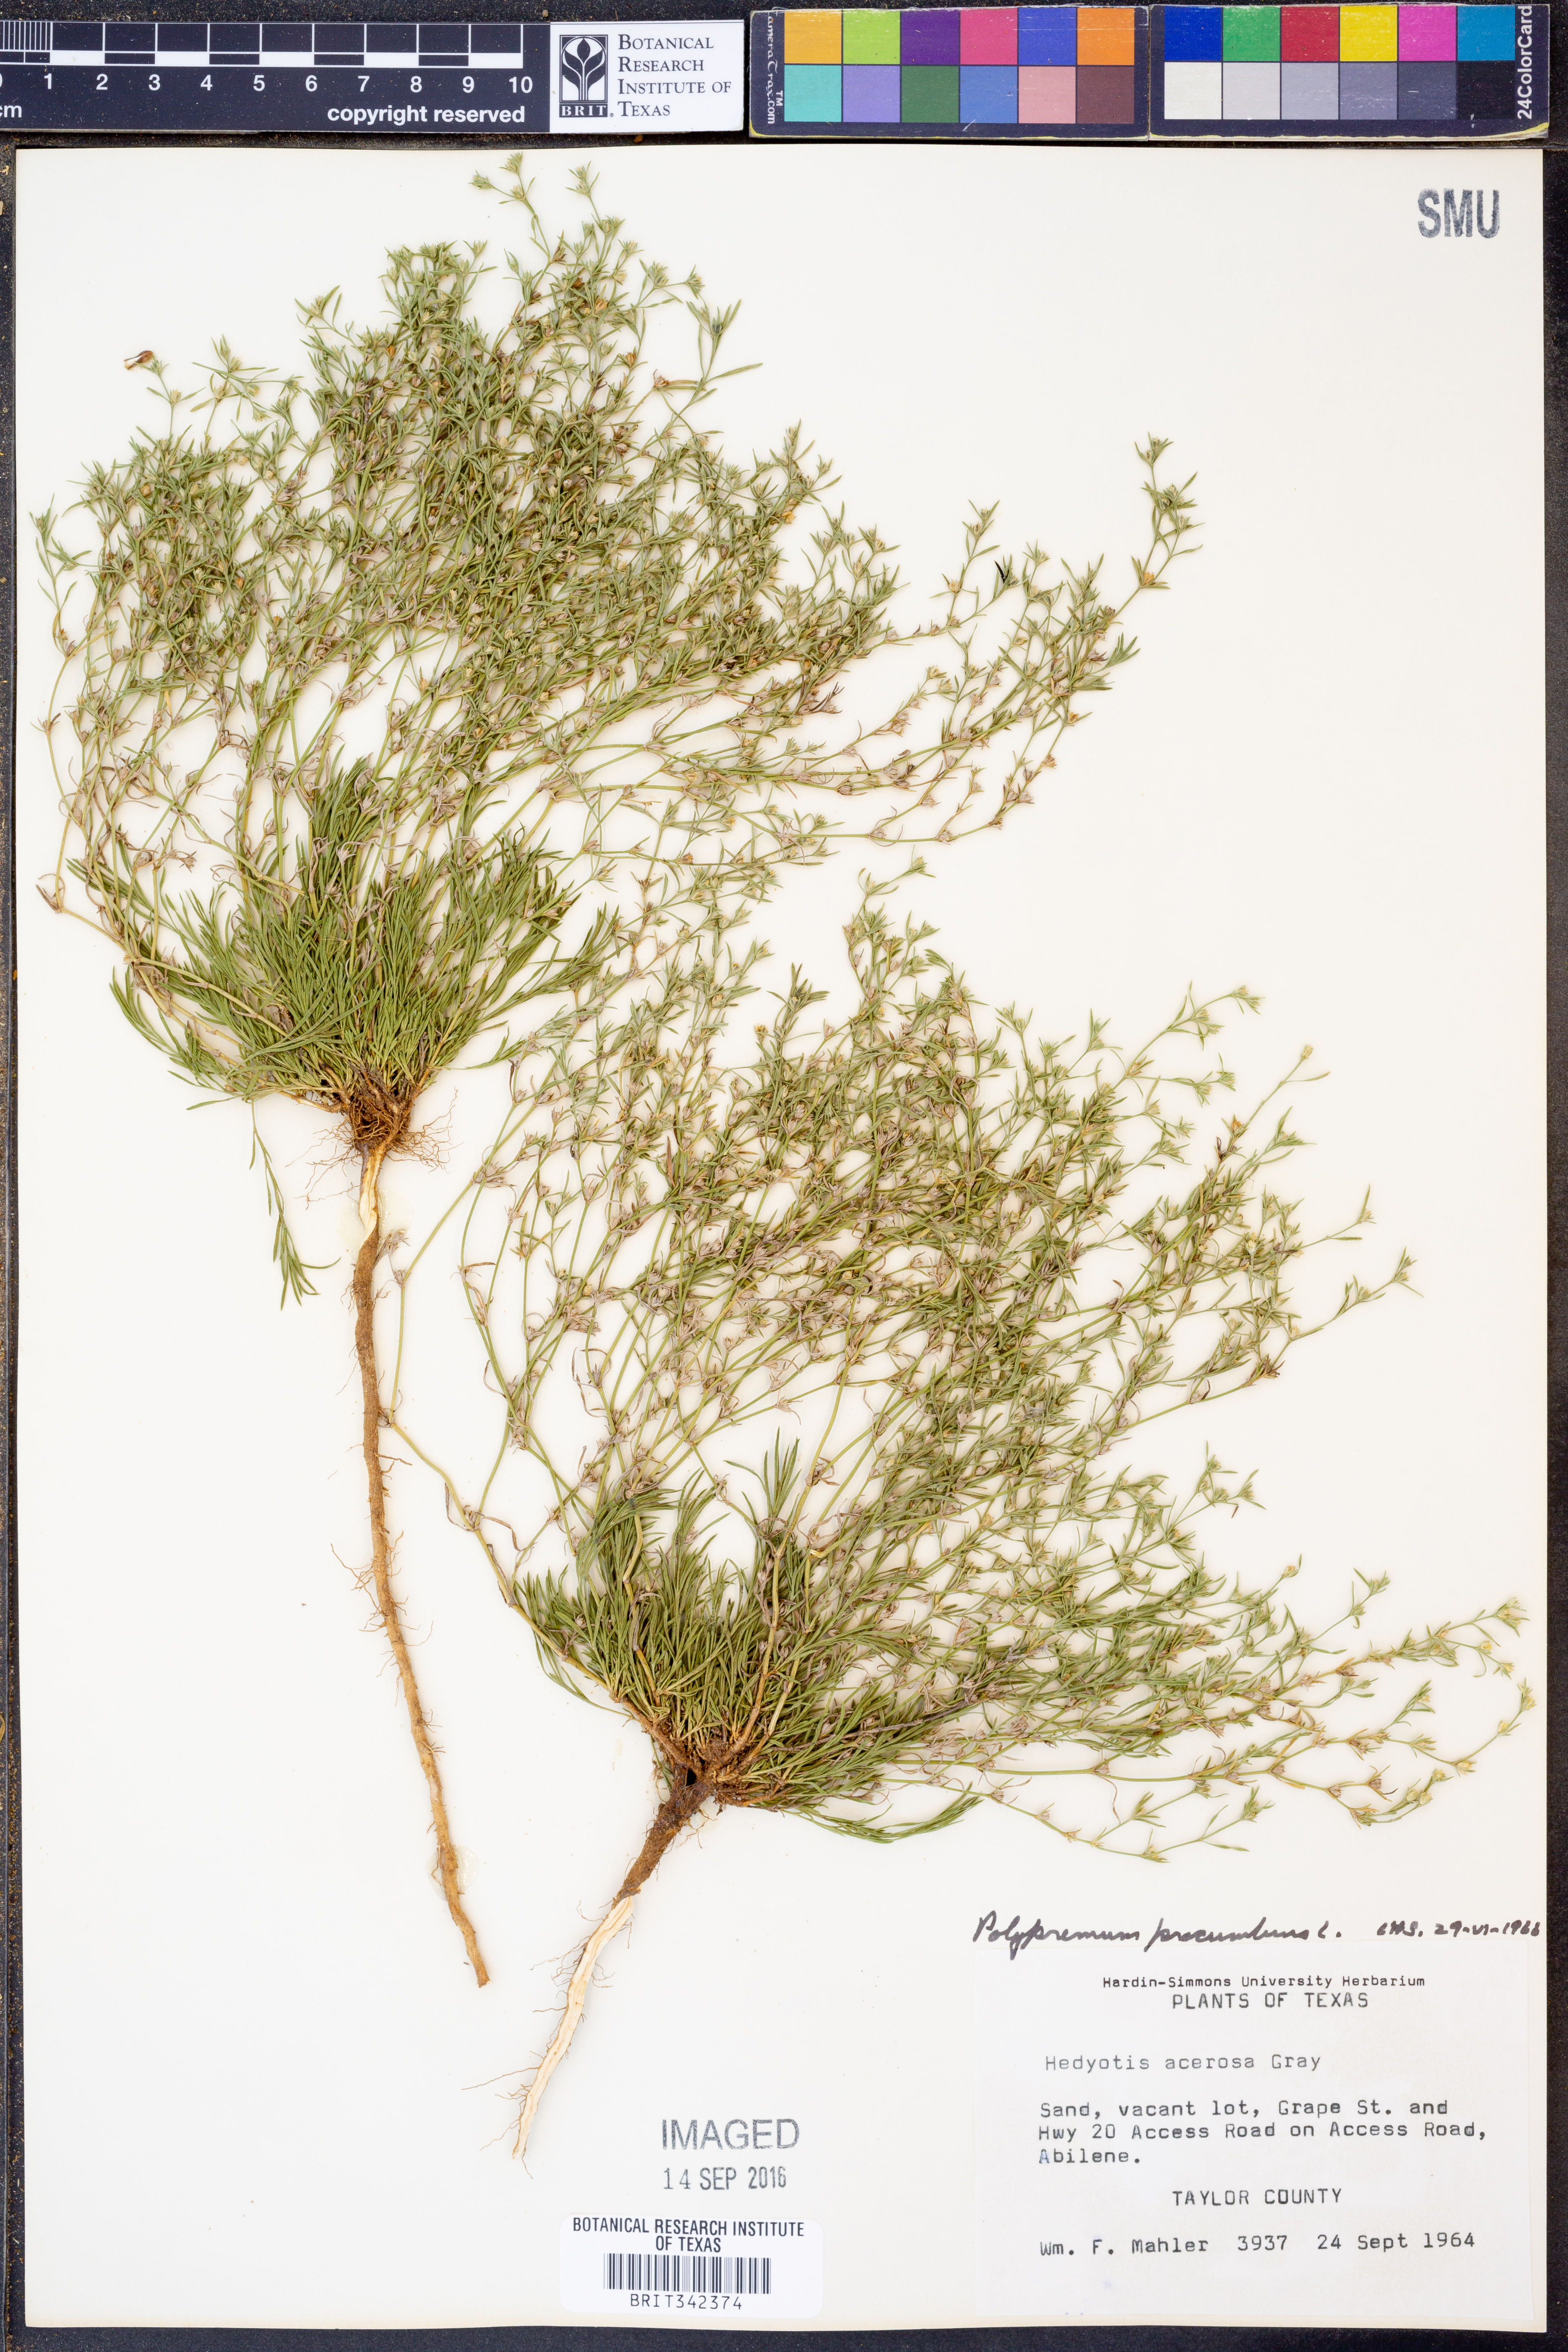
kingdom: Plantae
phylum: Tracheophyta
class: Magnoliopsida
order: Lamiales
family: Tetrachondraceae
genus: Polypremum
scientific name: Polypremum procumbens
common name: Juniper-leaf
